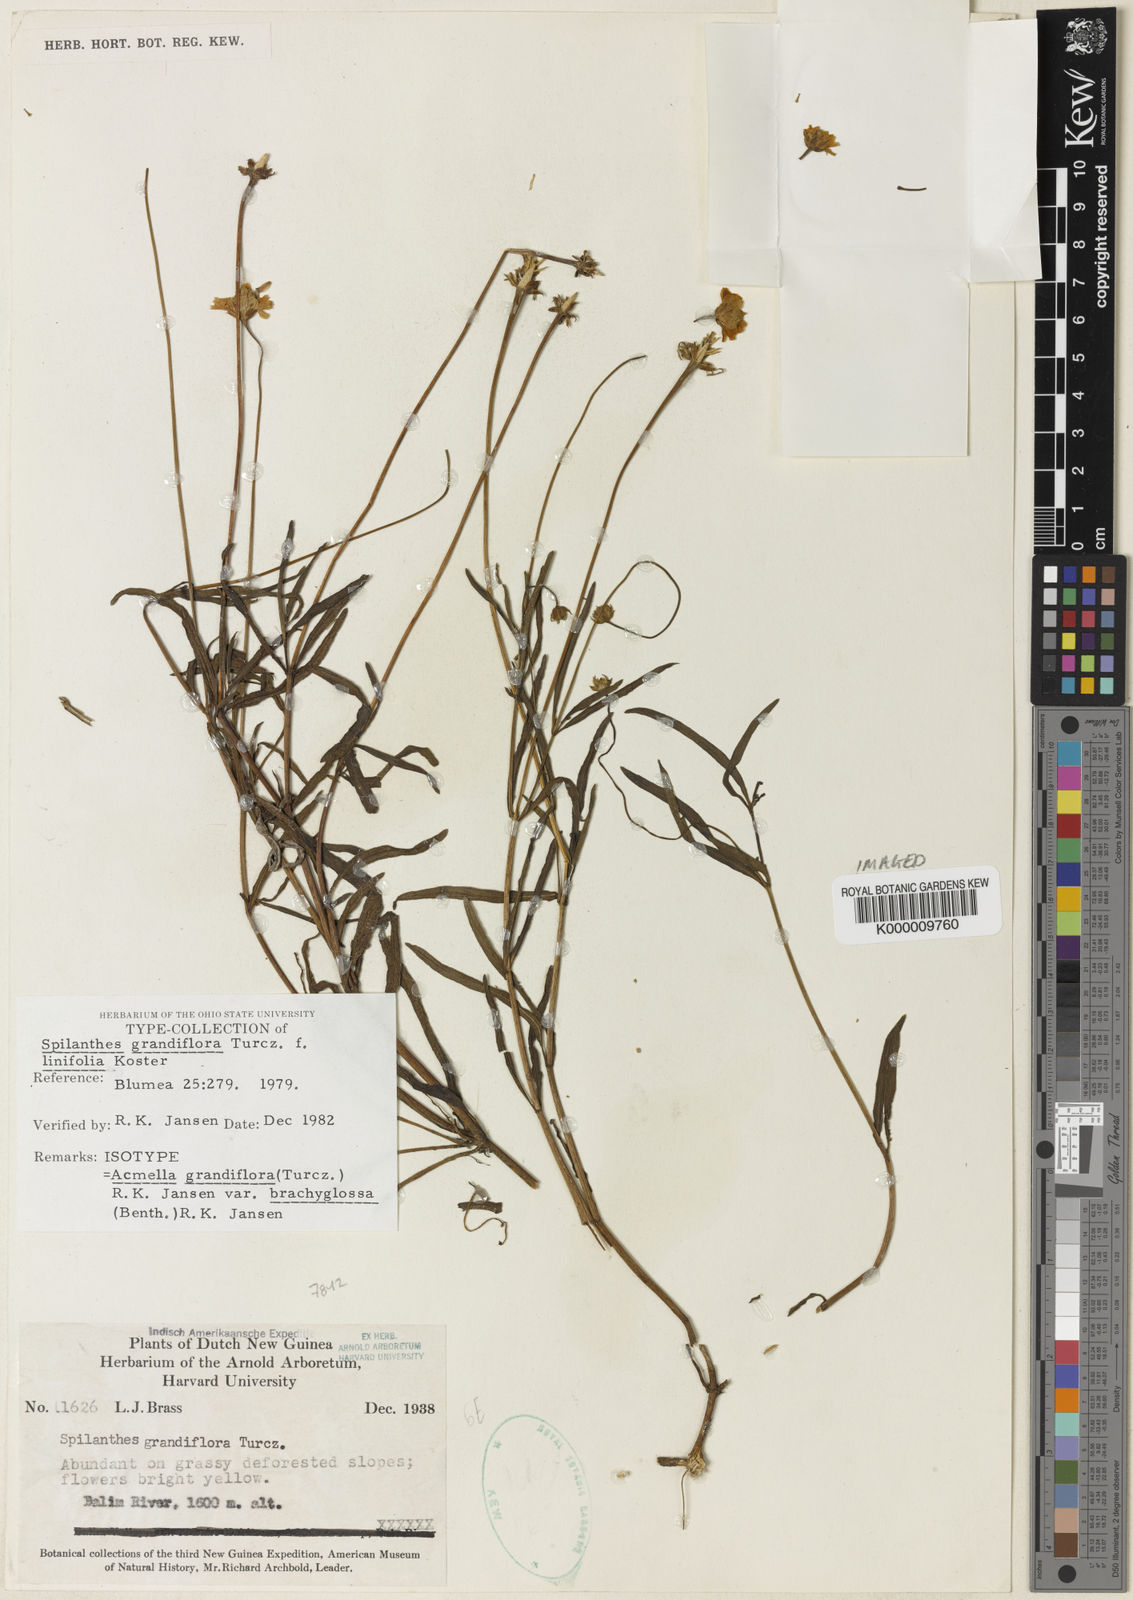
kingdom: Plantae
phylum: Tracheophyta
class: Magnoliopsida
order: Asterales
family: Asteraceae
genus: Acmella
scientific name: Acmella grandiflora
